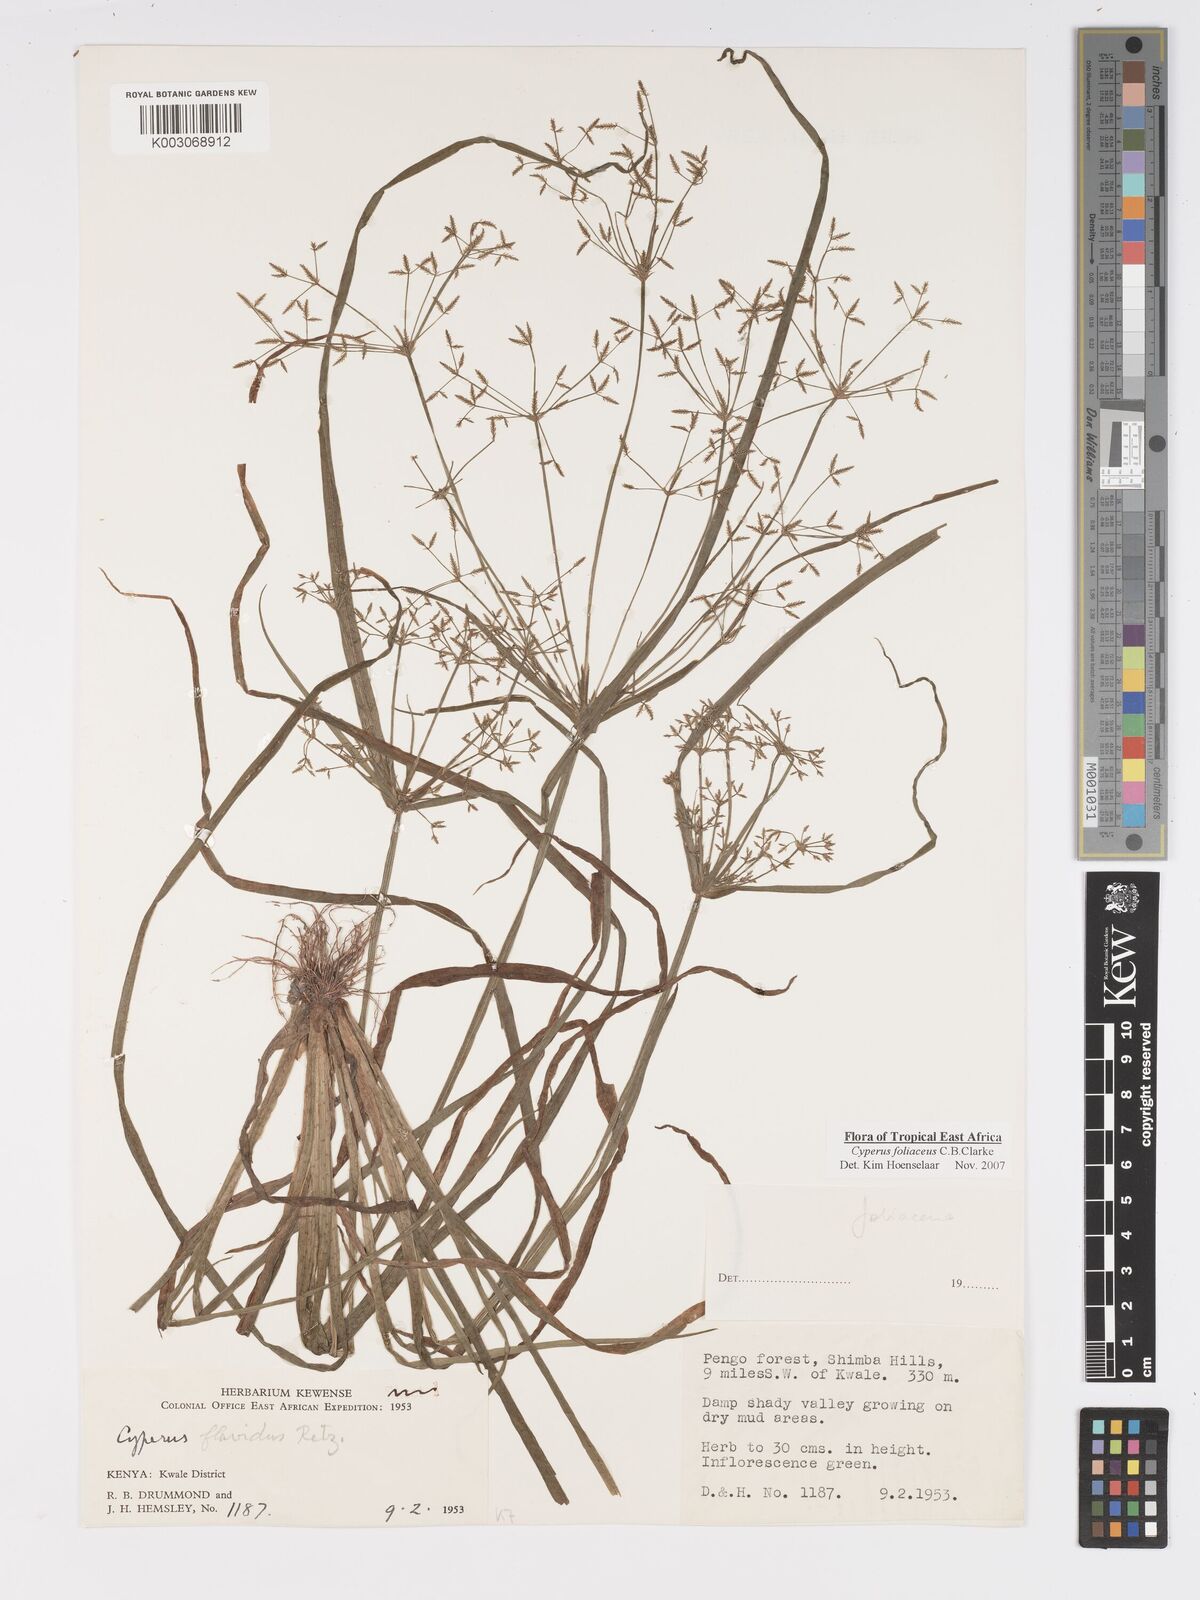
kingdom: Plantae
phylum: Tracheophyta
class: Liliopsida
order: Poales
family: Cyperaceae
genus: Cyperus
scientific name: Cyperus foliaceus
